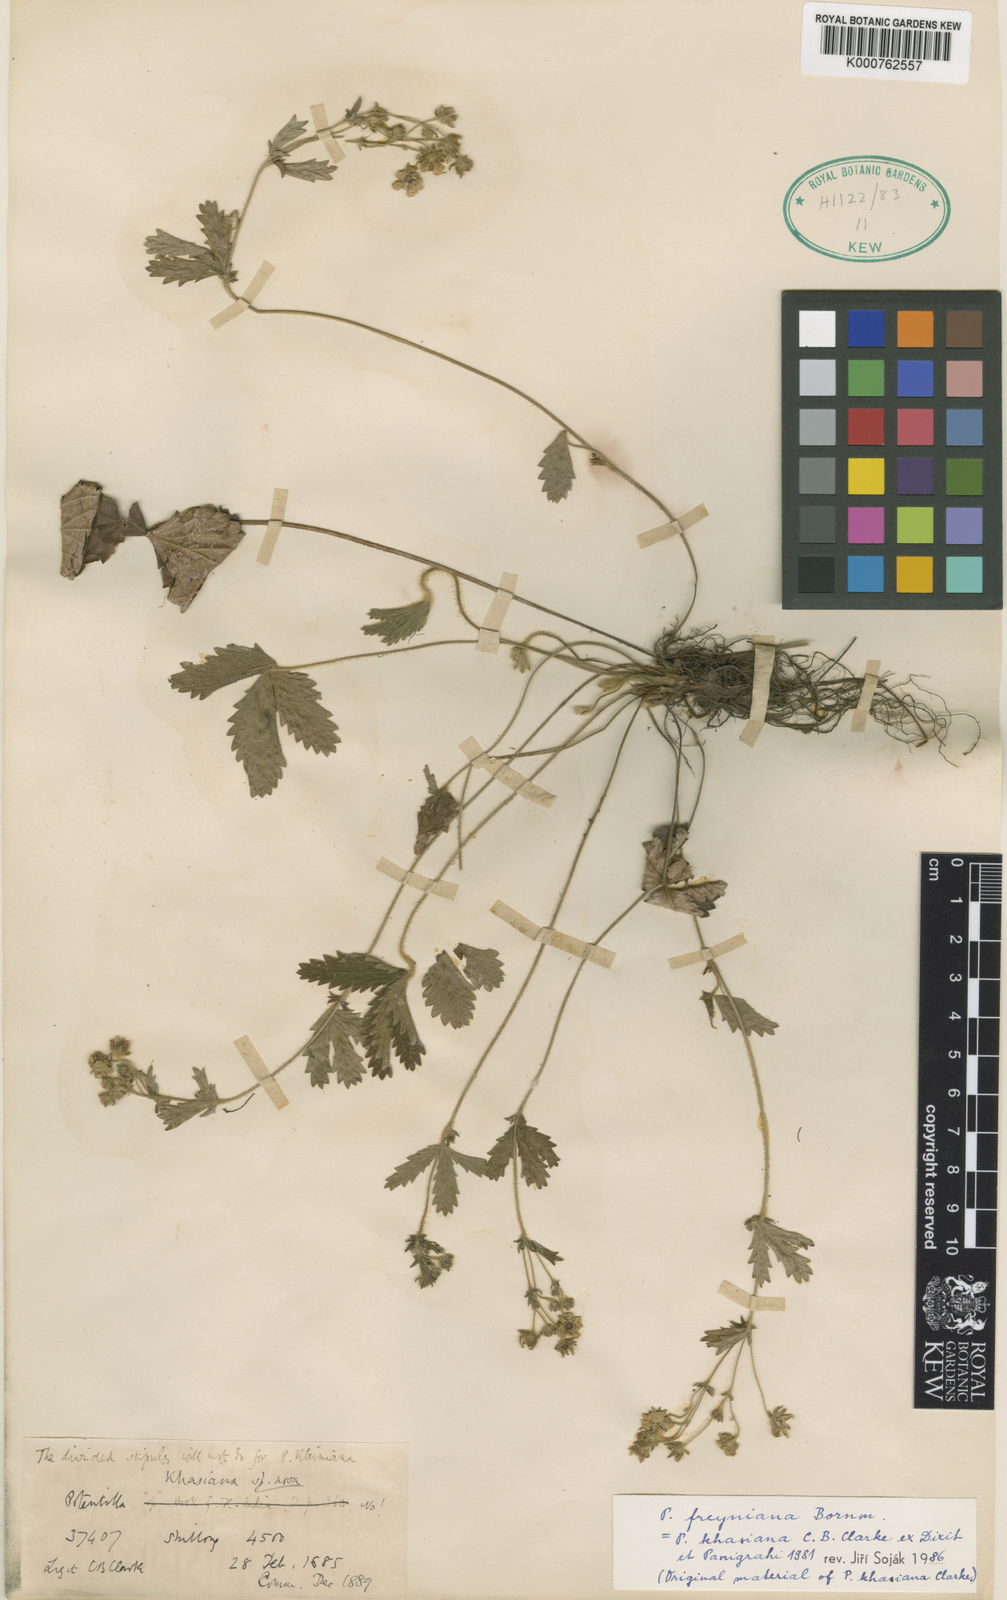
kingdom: Plantae
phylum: Tracheophyta
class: Magnoliopsida
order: Rosales
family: Rosaceae
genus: Potentilla
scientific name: Potentilla freyniana
